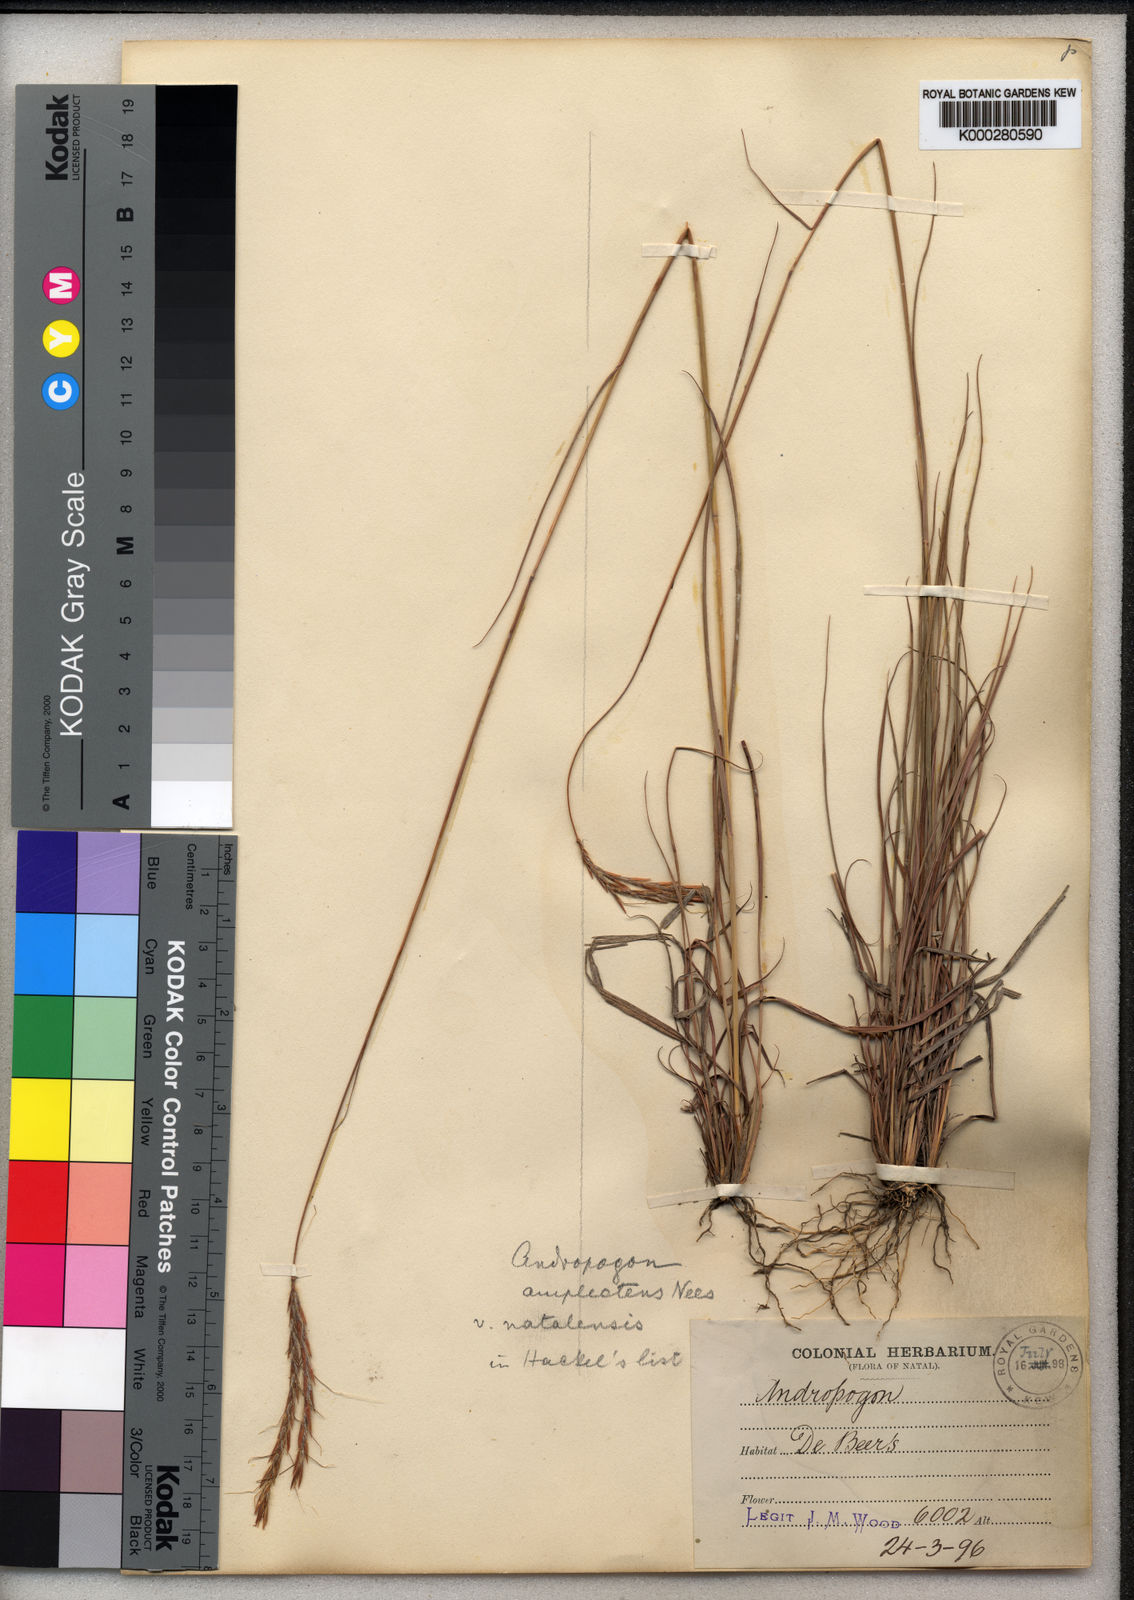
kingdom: Plantae
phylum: Tracheophyta
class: Liliopsida
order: Poales
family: Poaceae
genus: Diheteropogon
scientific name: Diheteropogon amplectens
